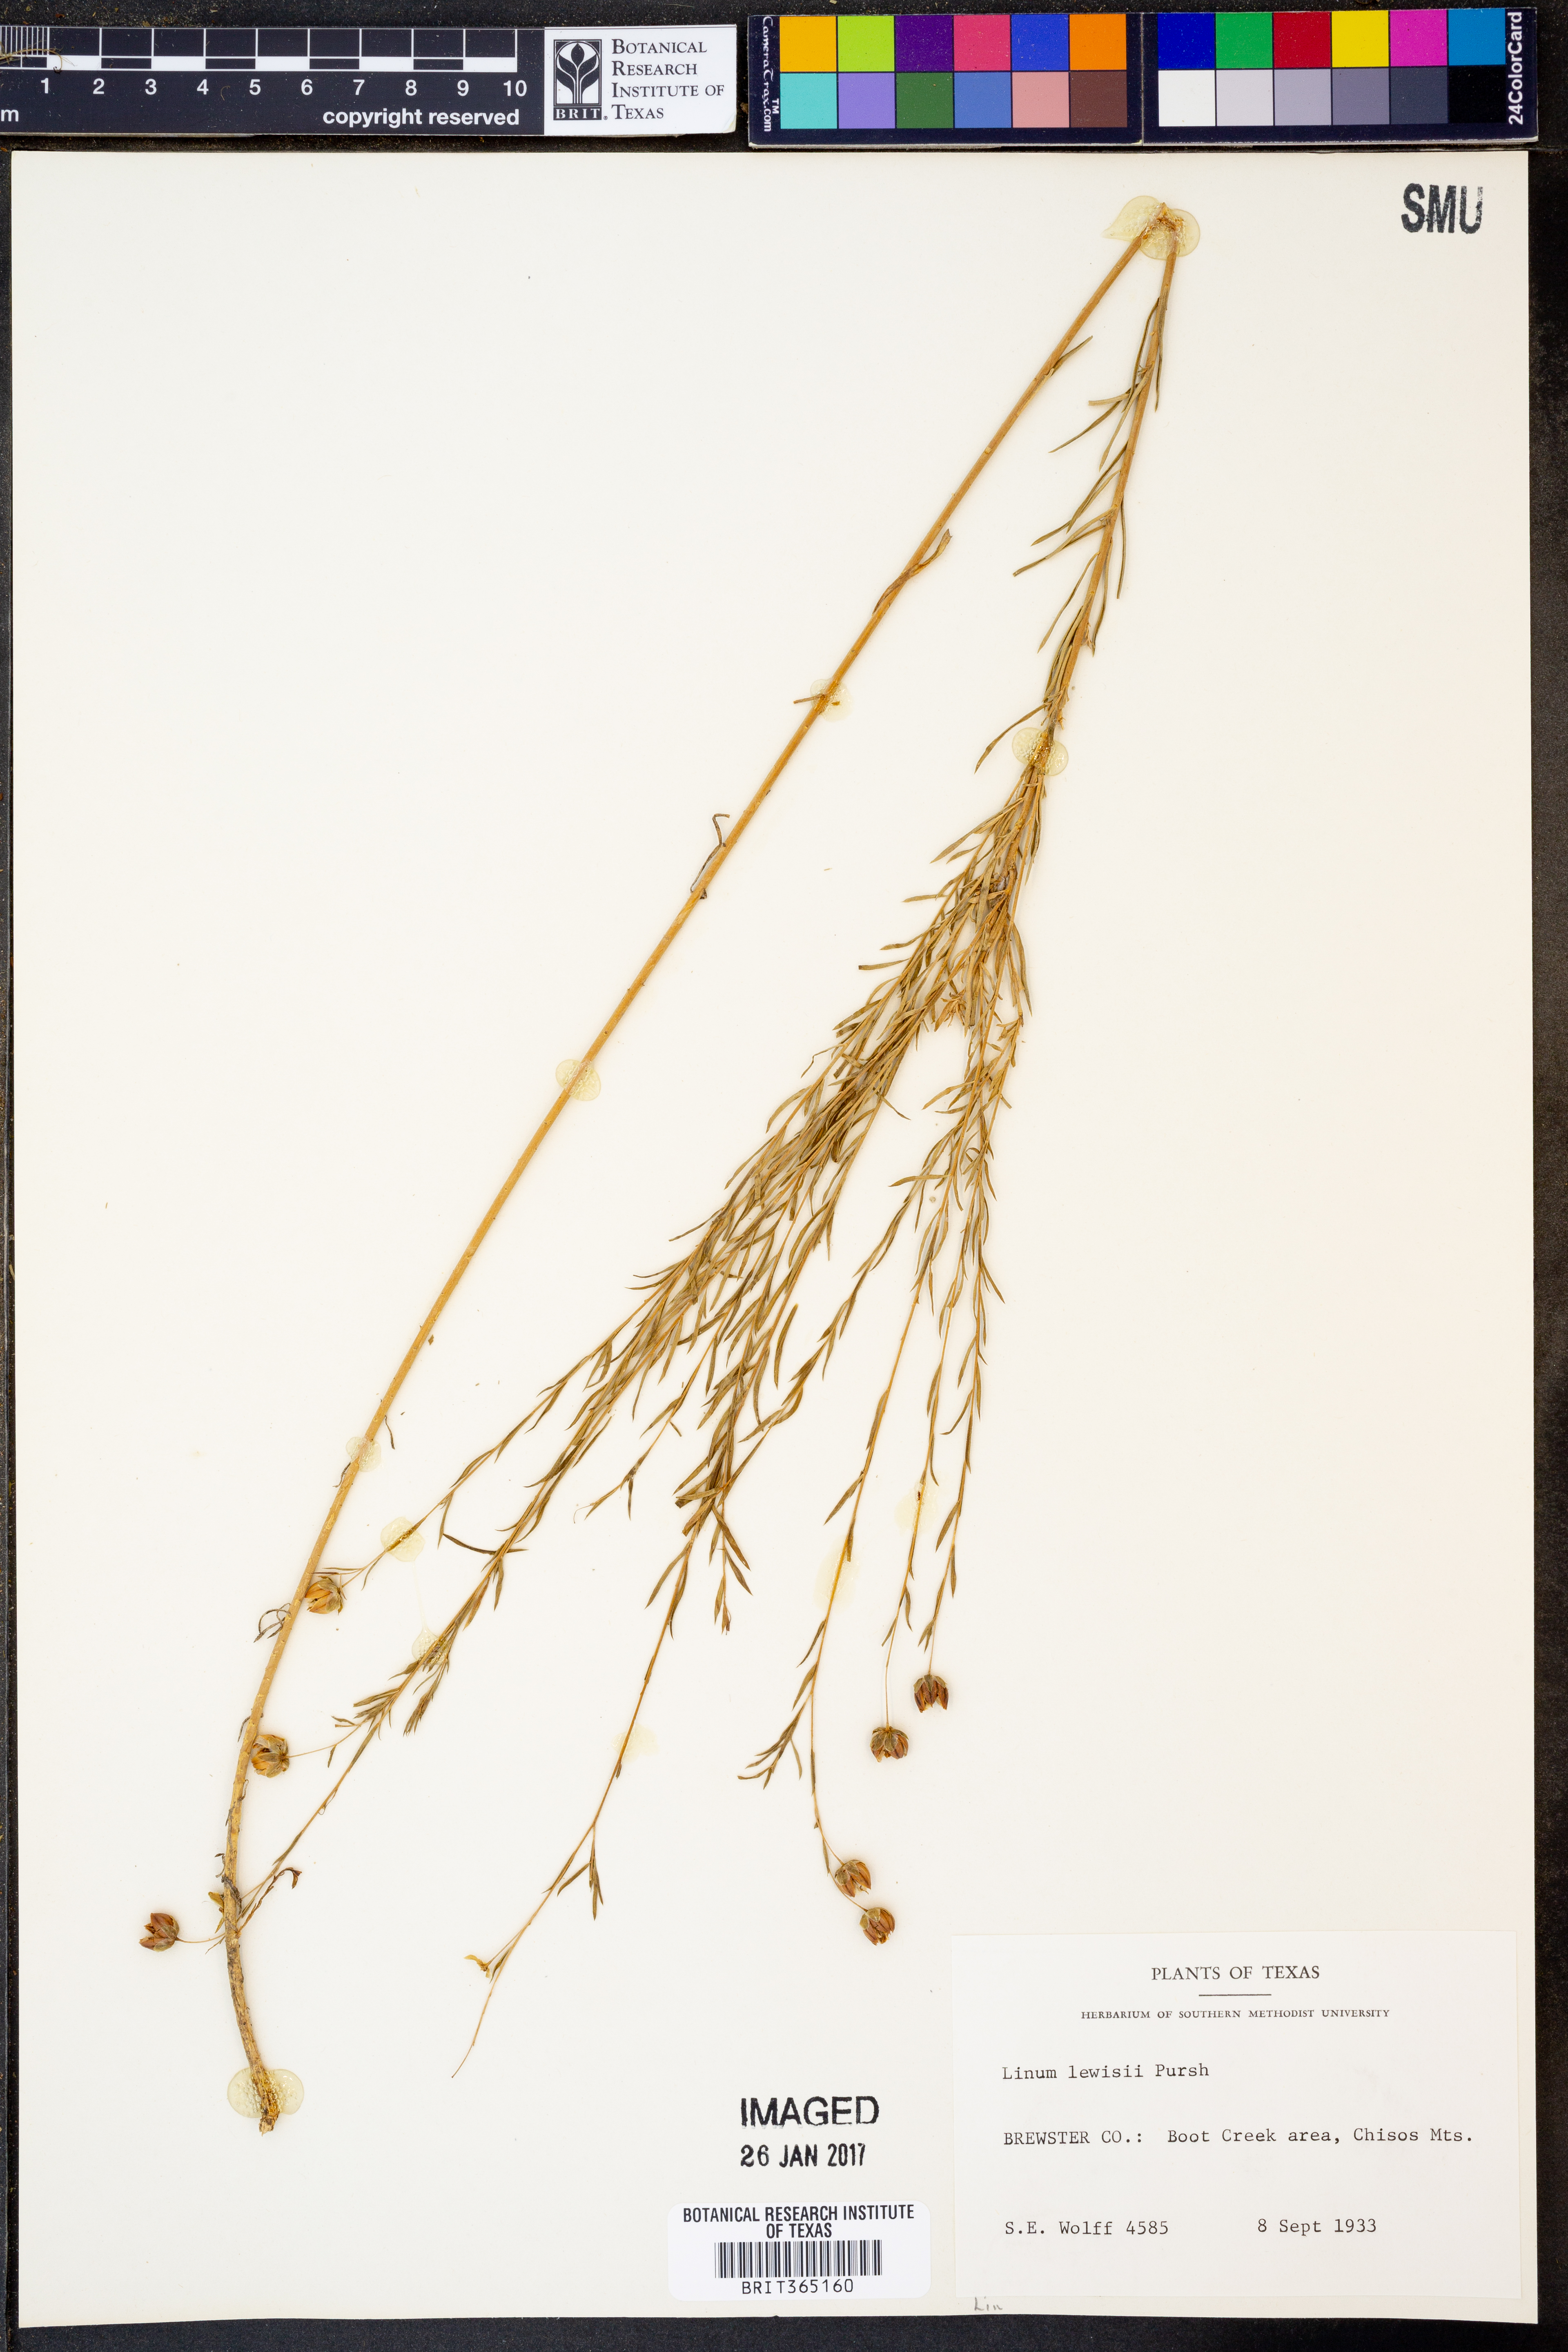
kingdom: Plantae
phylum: Tracheophyta
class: Magnoliopsida
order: Malpighiales
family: Linaceae
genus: Linum
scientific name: Linum lewisii
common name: Prairie flax
